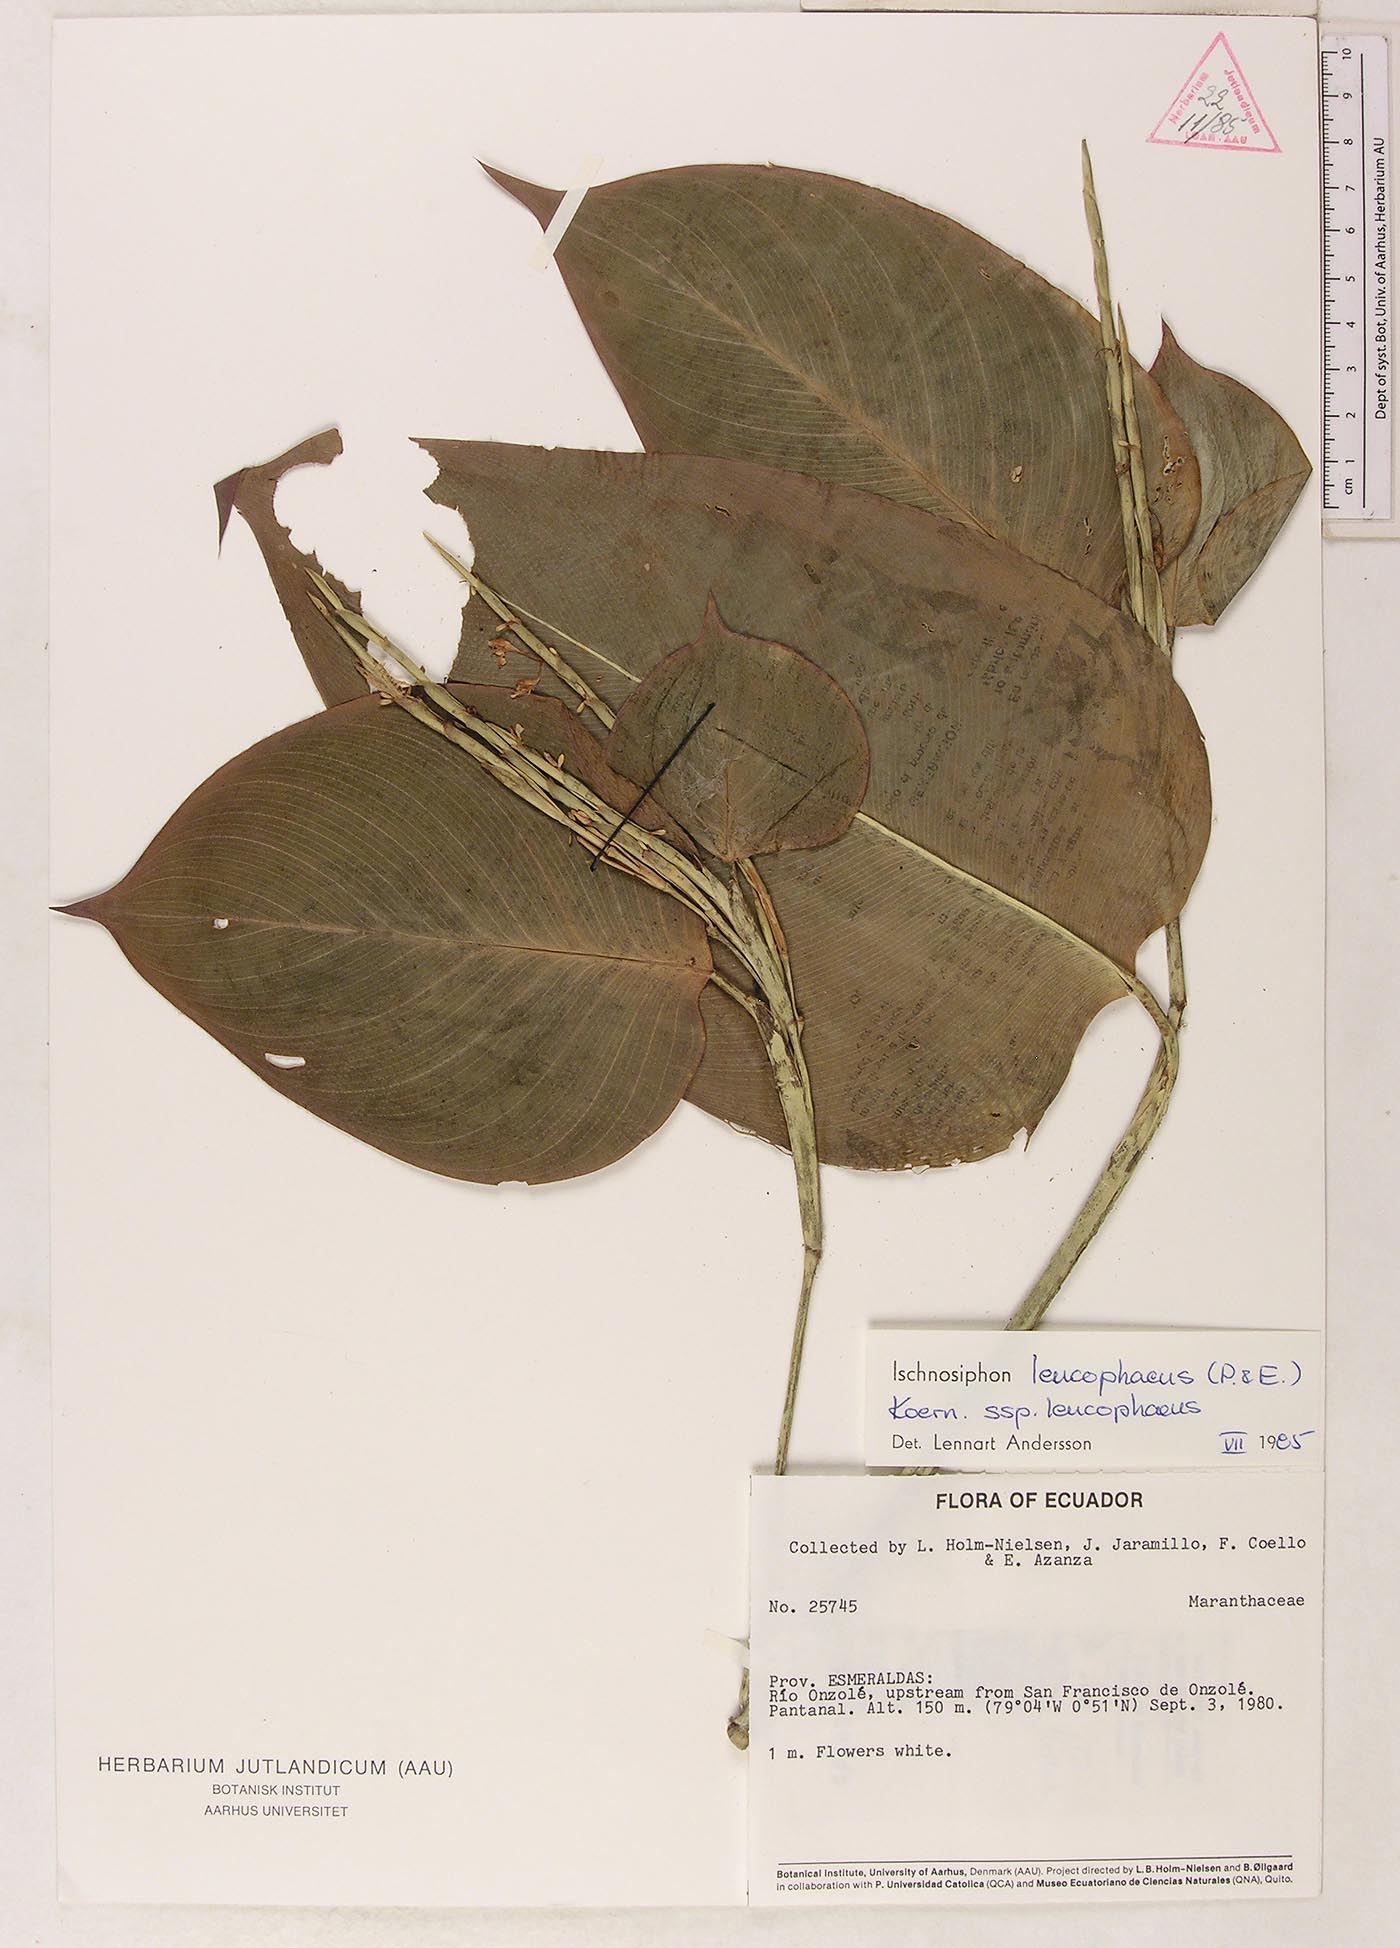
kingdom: Plantae
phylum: Tracheophyta
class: Liliopsida
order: Zingiberales
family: Marantaceae
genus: Ischnosiphon
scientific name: Ischnosiphon leucophaeus
